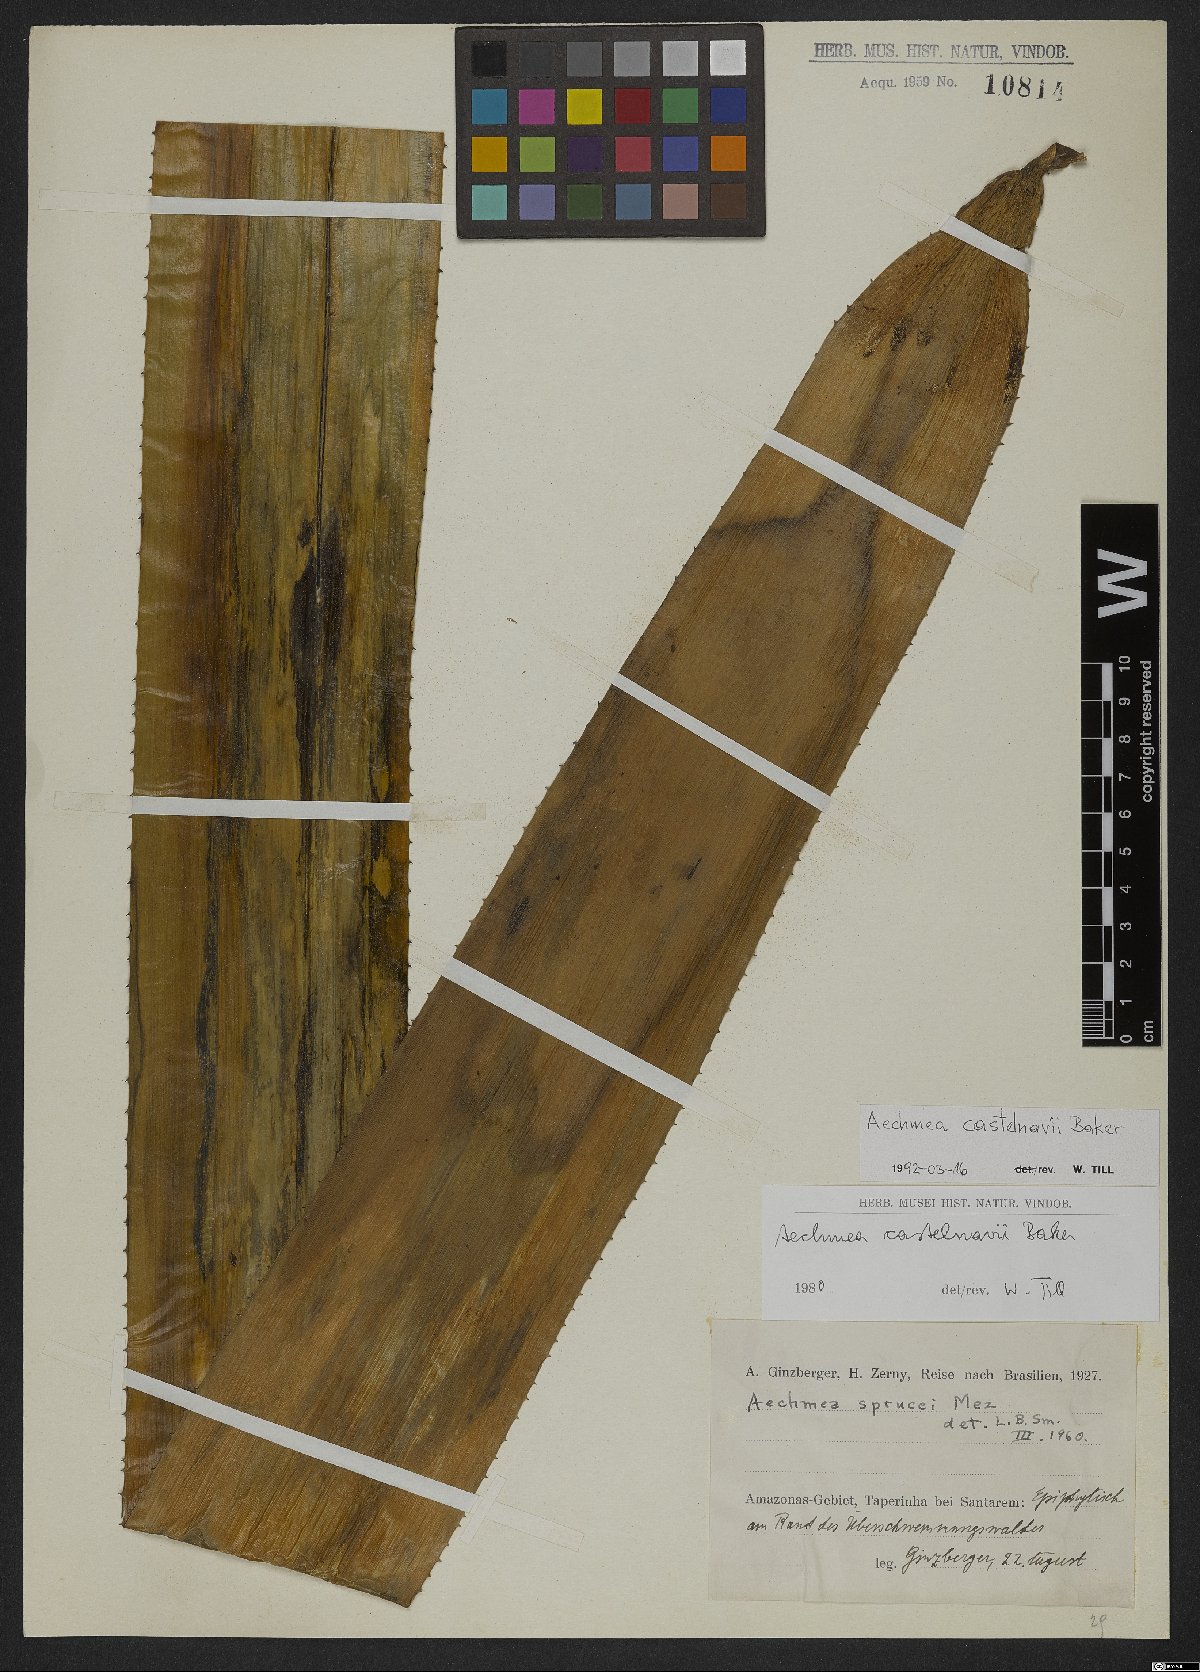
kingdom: Plantae
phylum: Tracheophyta
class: Liliopsida
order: Poales
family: Bromeliaceae
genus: Aechmea
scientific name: Aechmea castelnavii
